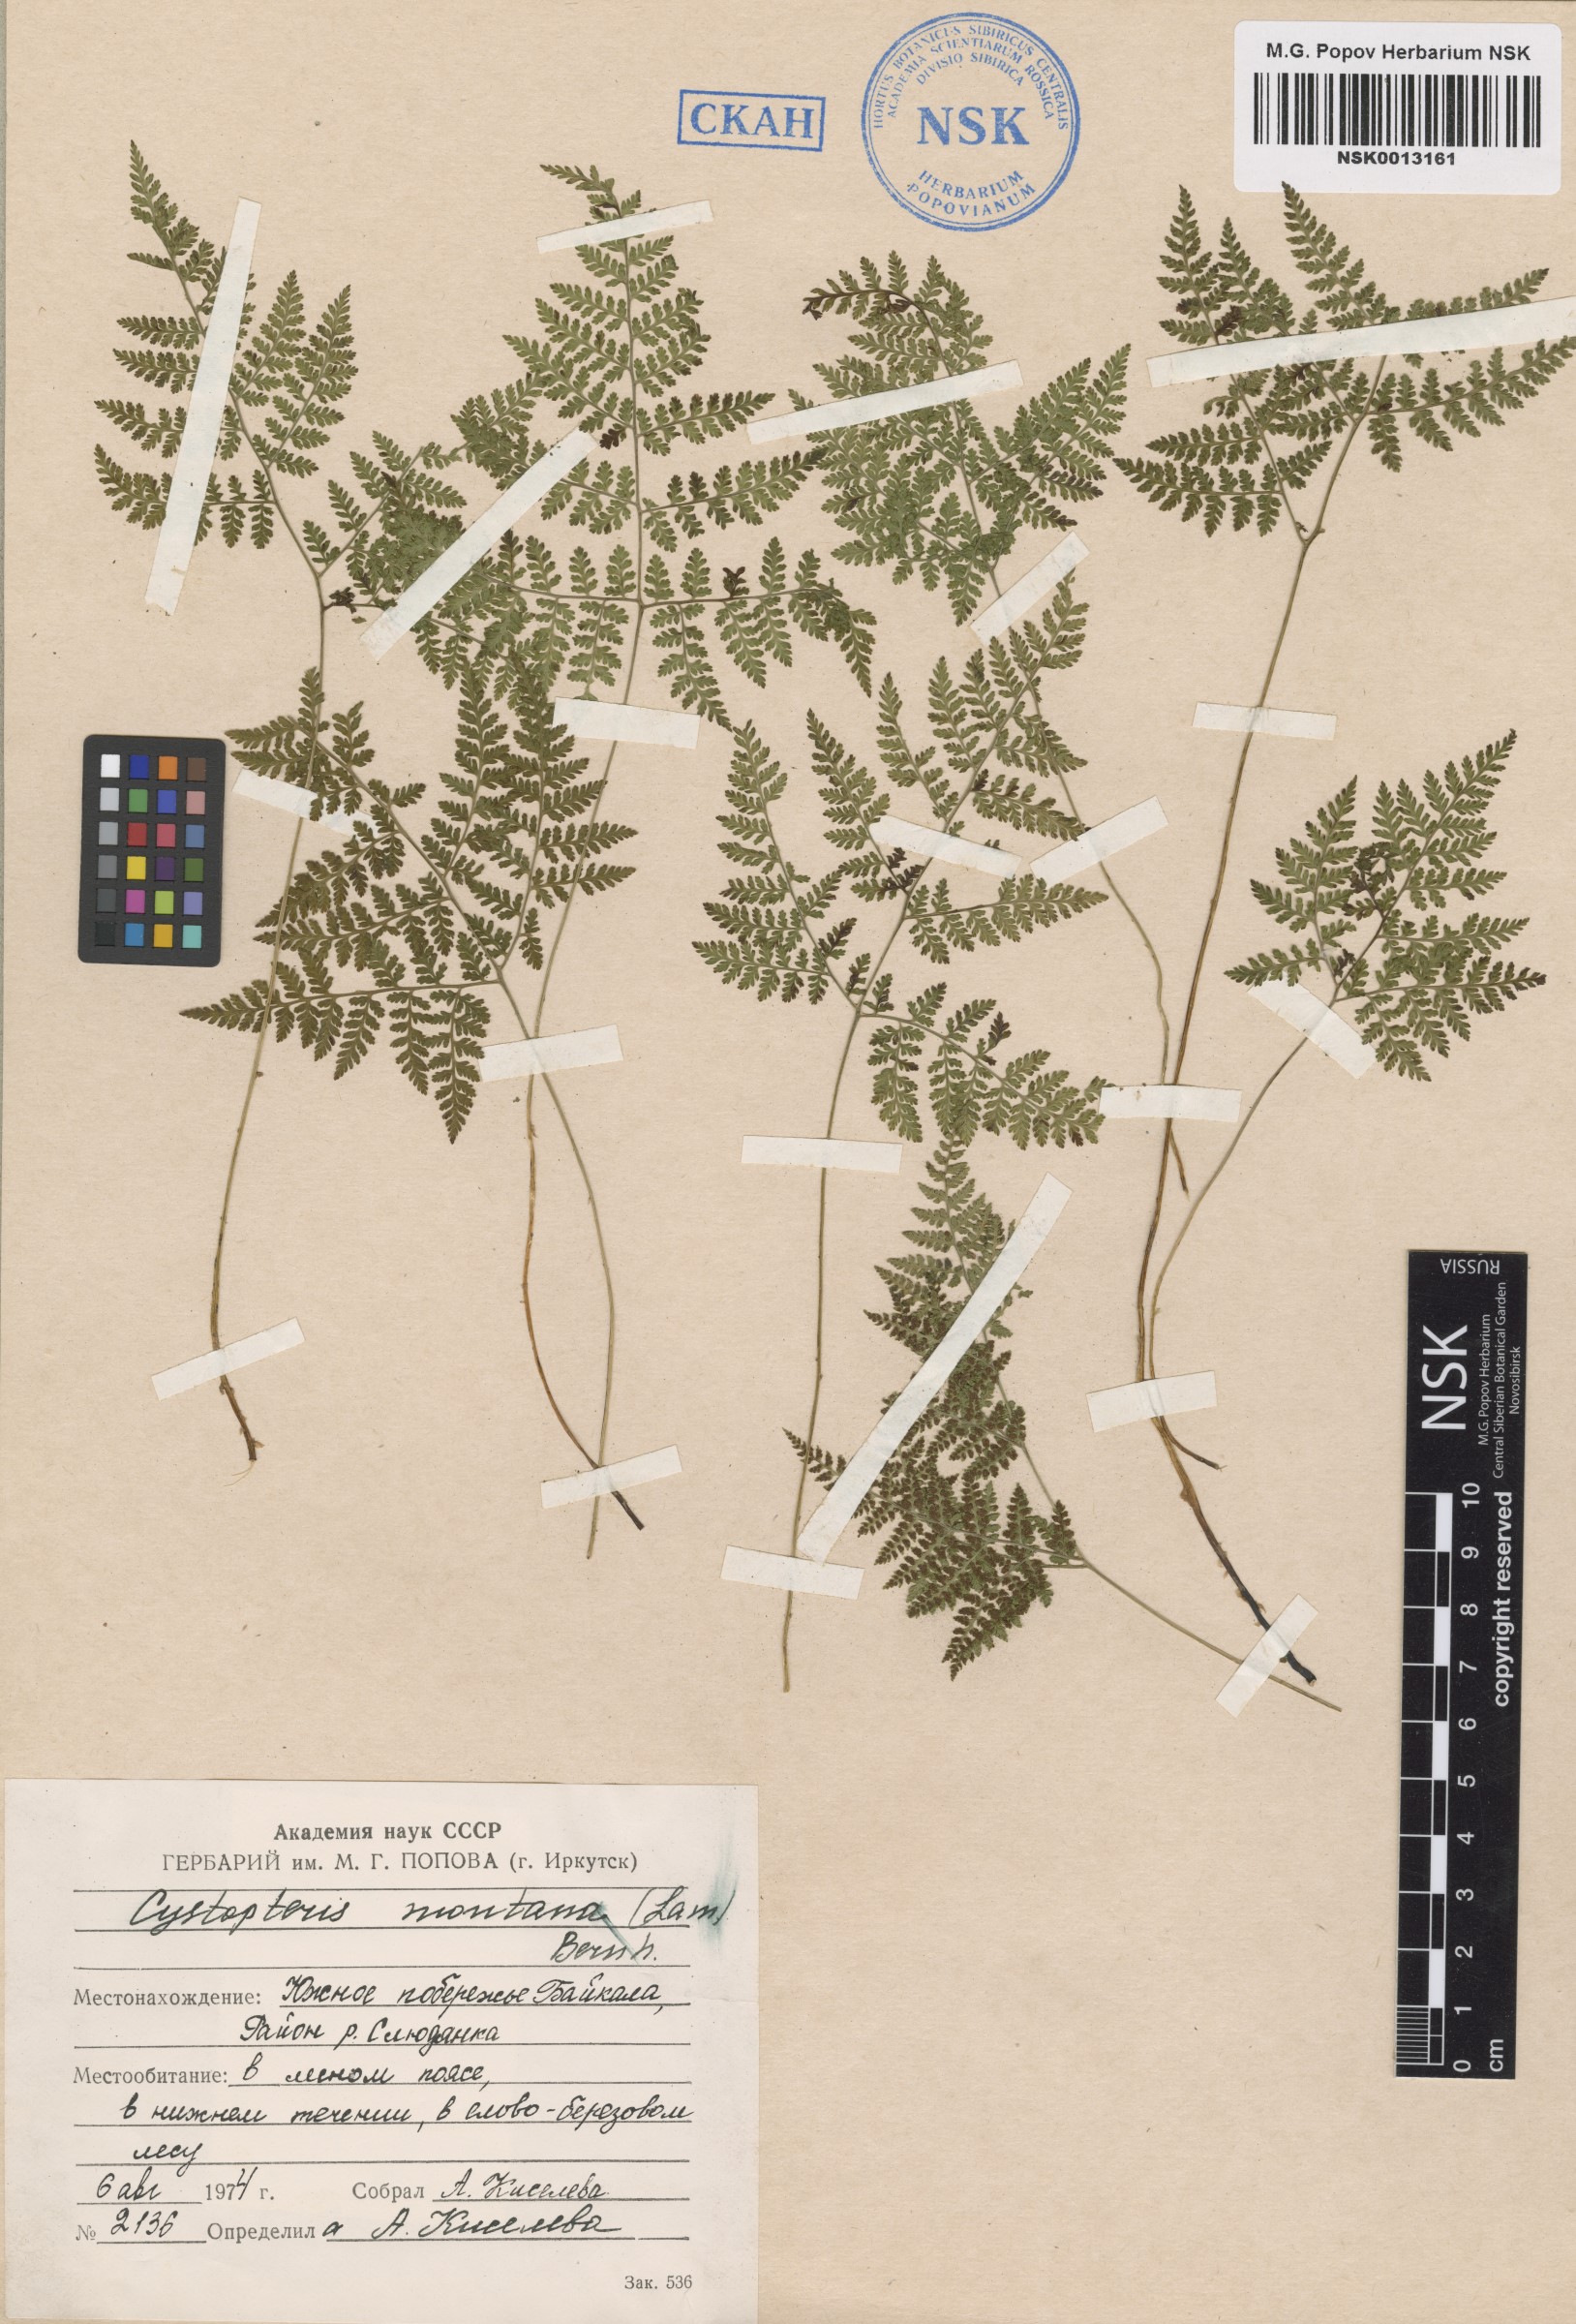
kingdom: Plantae
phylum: Tracheophyta
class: Polypodiopsida
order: Polypodiales
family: Cystopteridaceae
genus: Cystopteris
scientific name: Cystopteris montana
